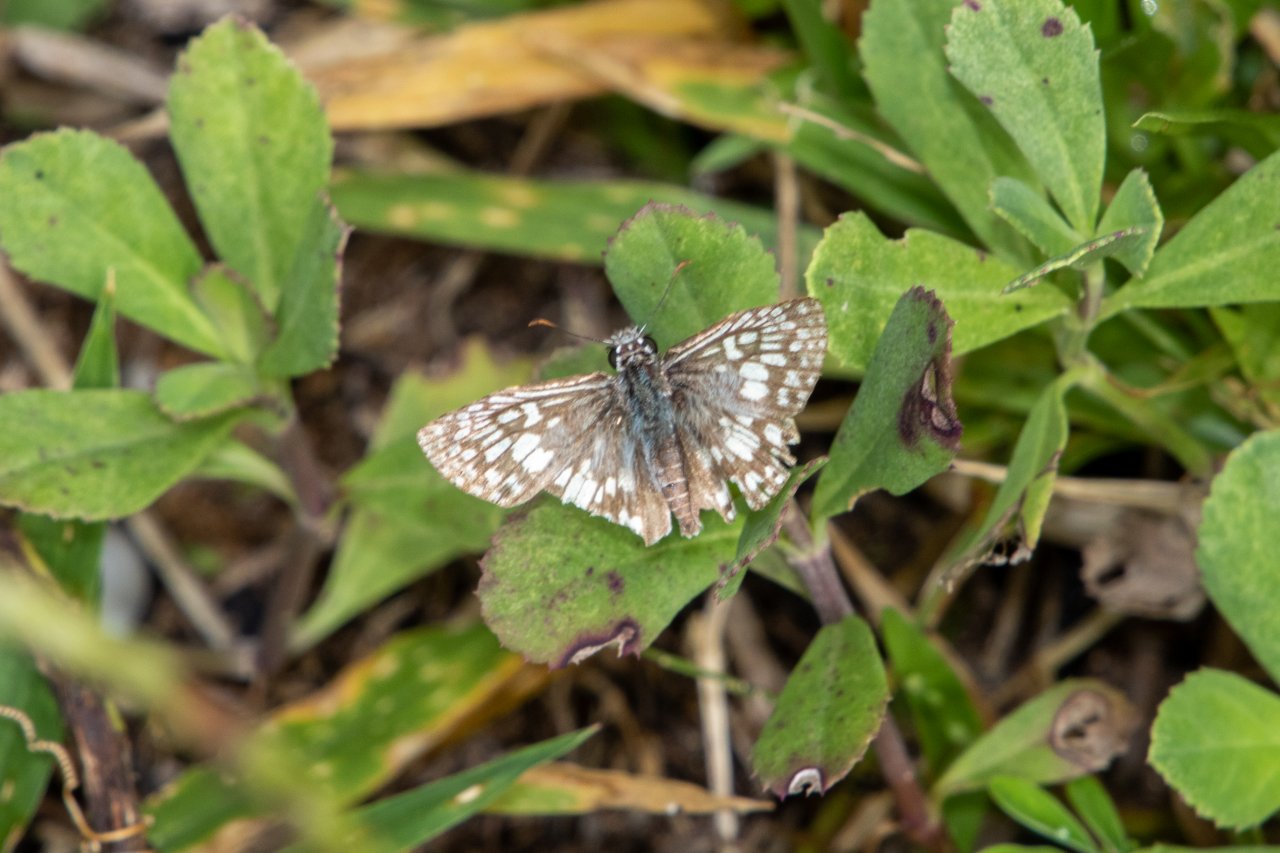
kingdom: Animalia
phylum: Arthropoda
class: Insecta
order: Lepidoptera
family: Hesperiidae
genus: Pyrgus
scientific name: Pyrgus oileus
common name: Tropical Checkered-Skipper
